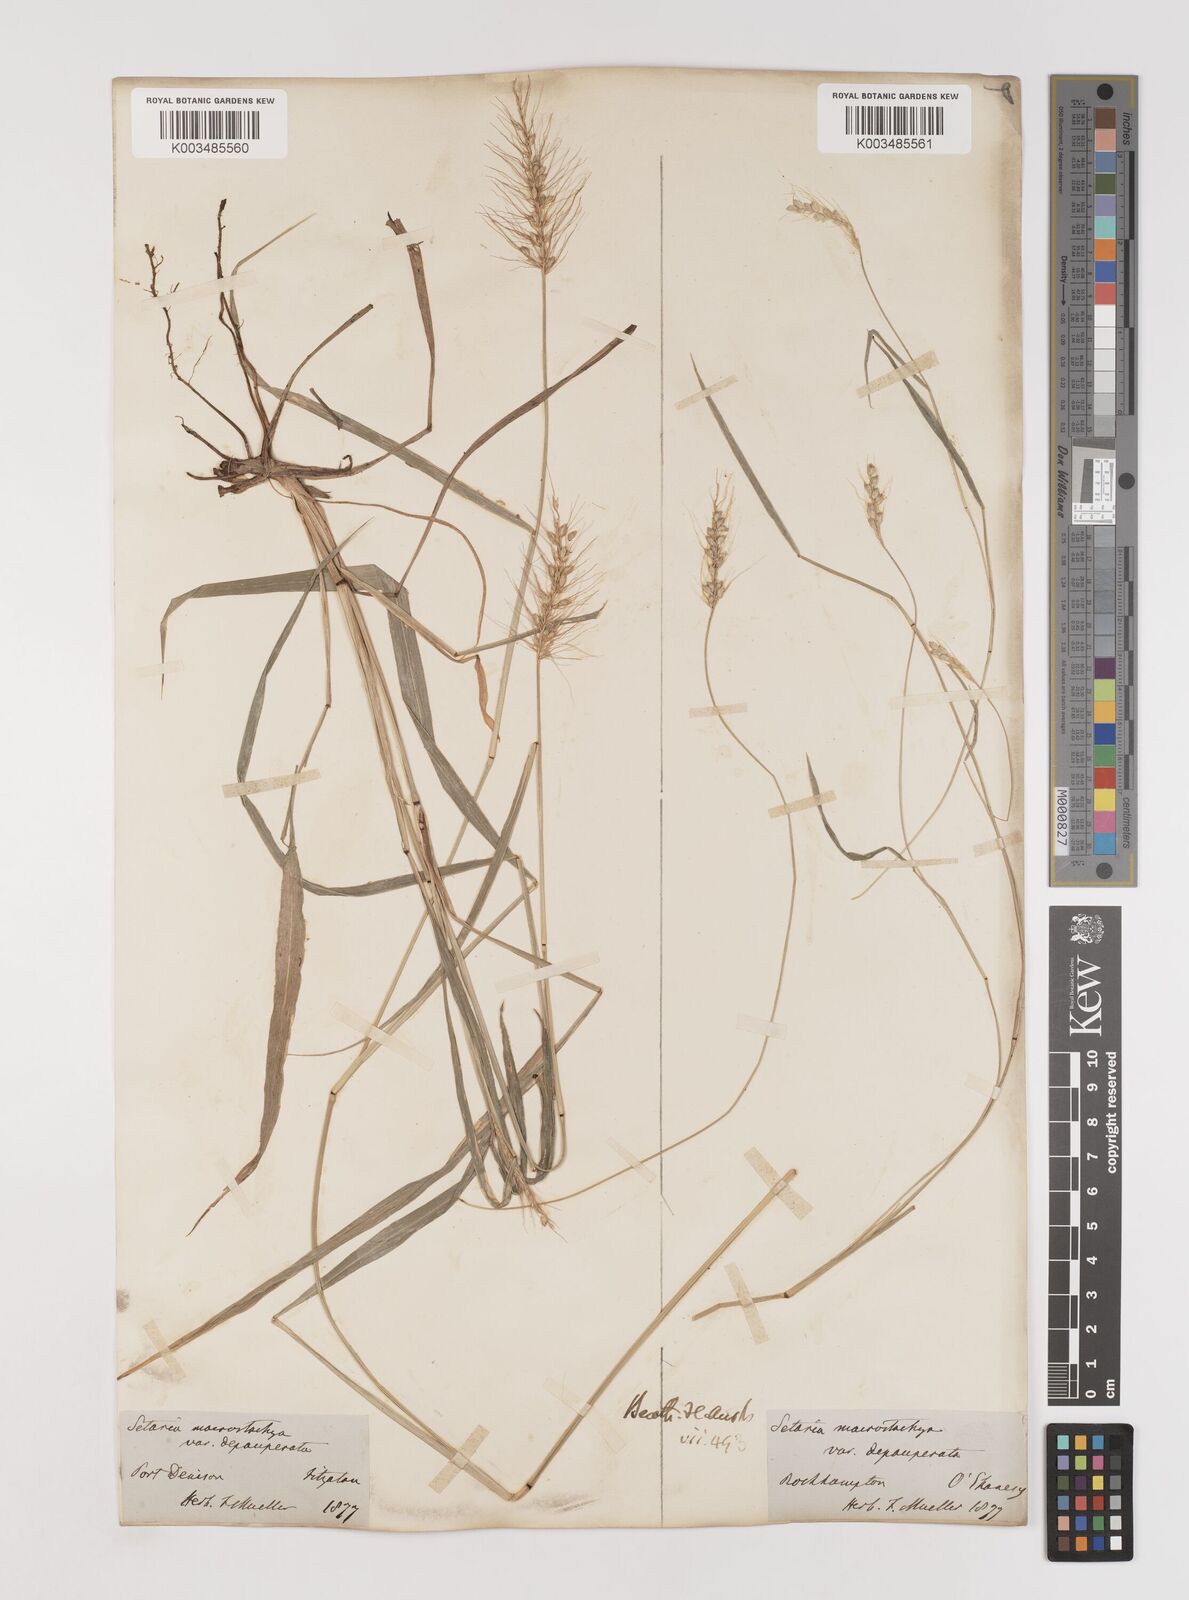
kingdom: Plantae
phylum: Tracheophyta
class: Liliopsida
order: Poales
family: Poaceae
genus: Setaria
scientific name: Setaria
